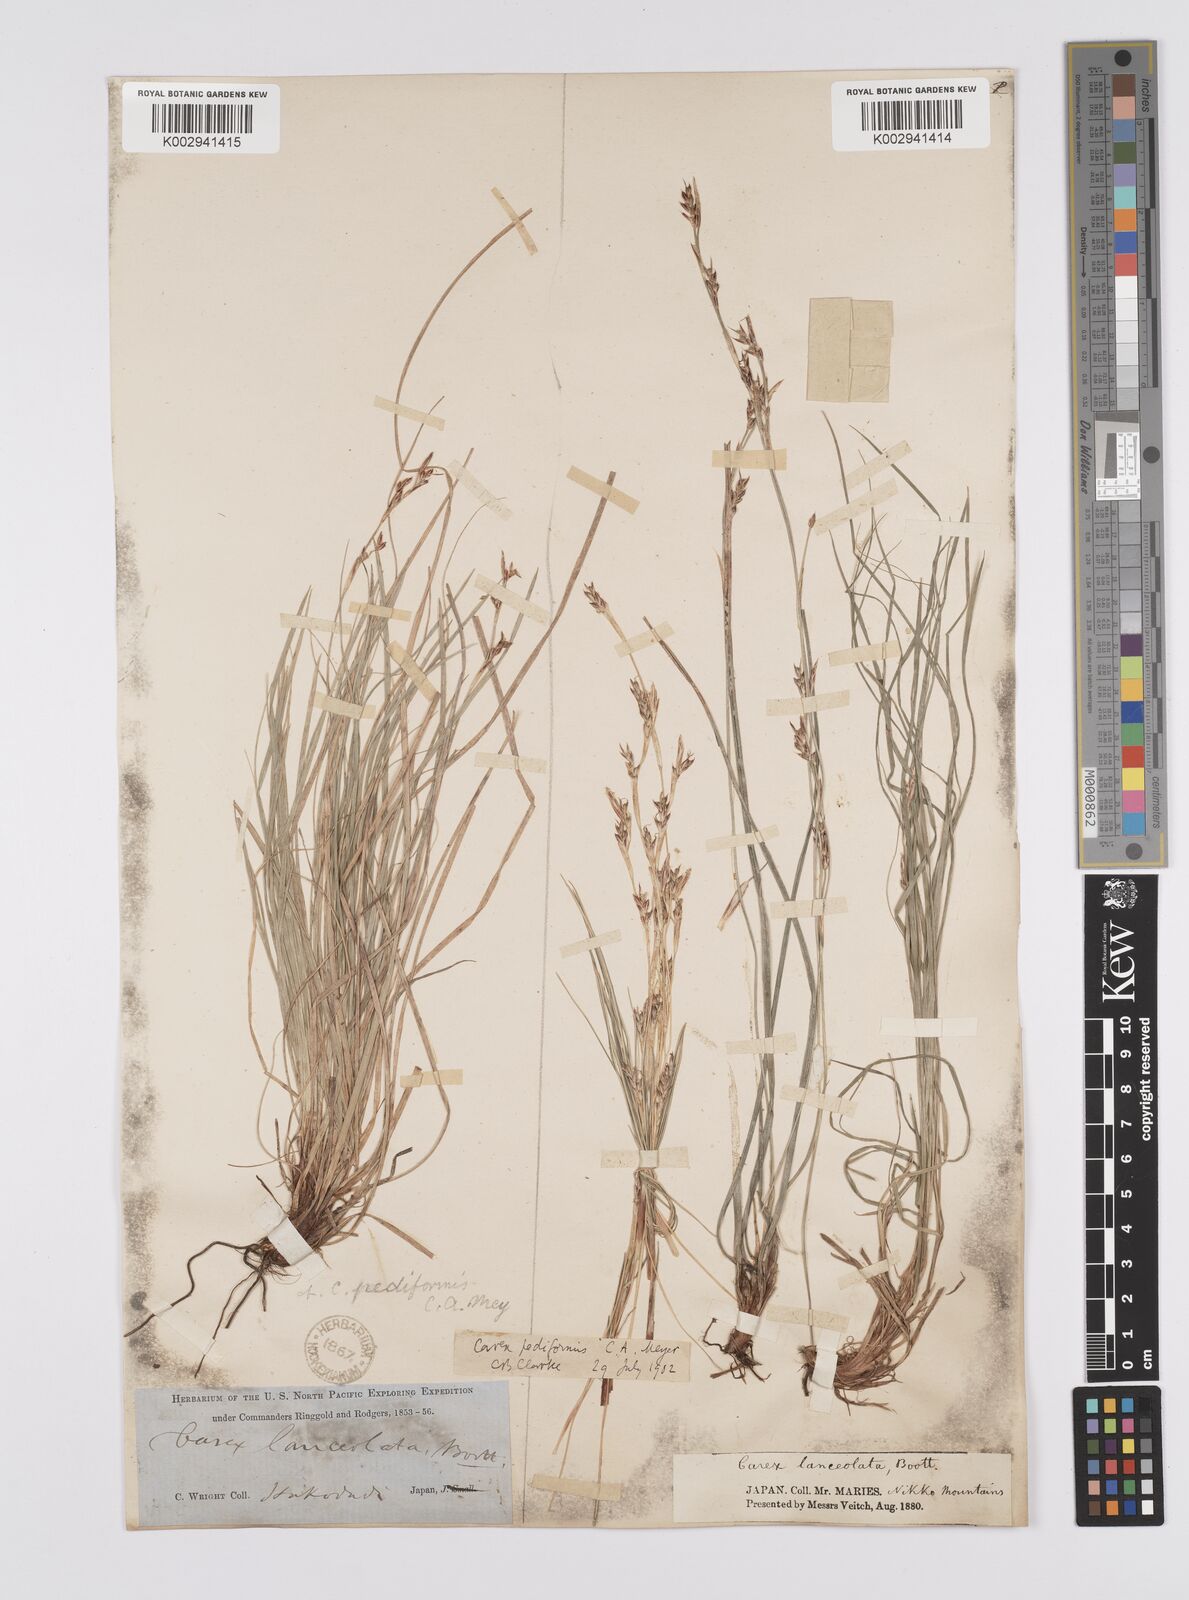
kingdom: Plantae
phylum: Tracheophyta
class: Liliopsida
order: Poales
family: Cyperaceae
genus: Carex
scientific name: Carex pediformis
